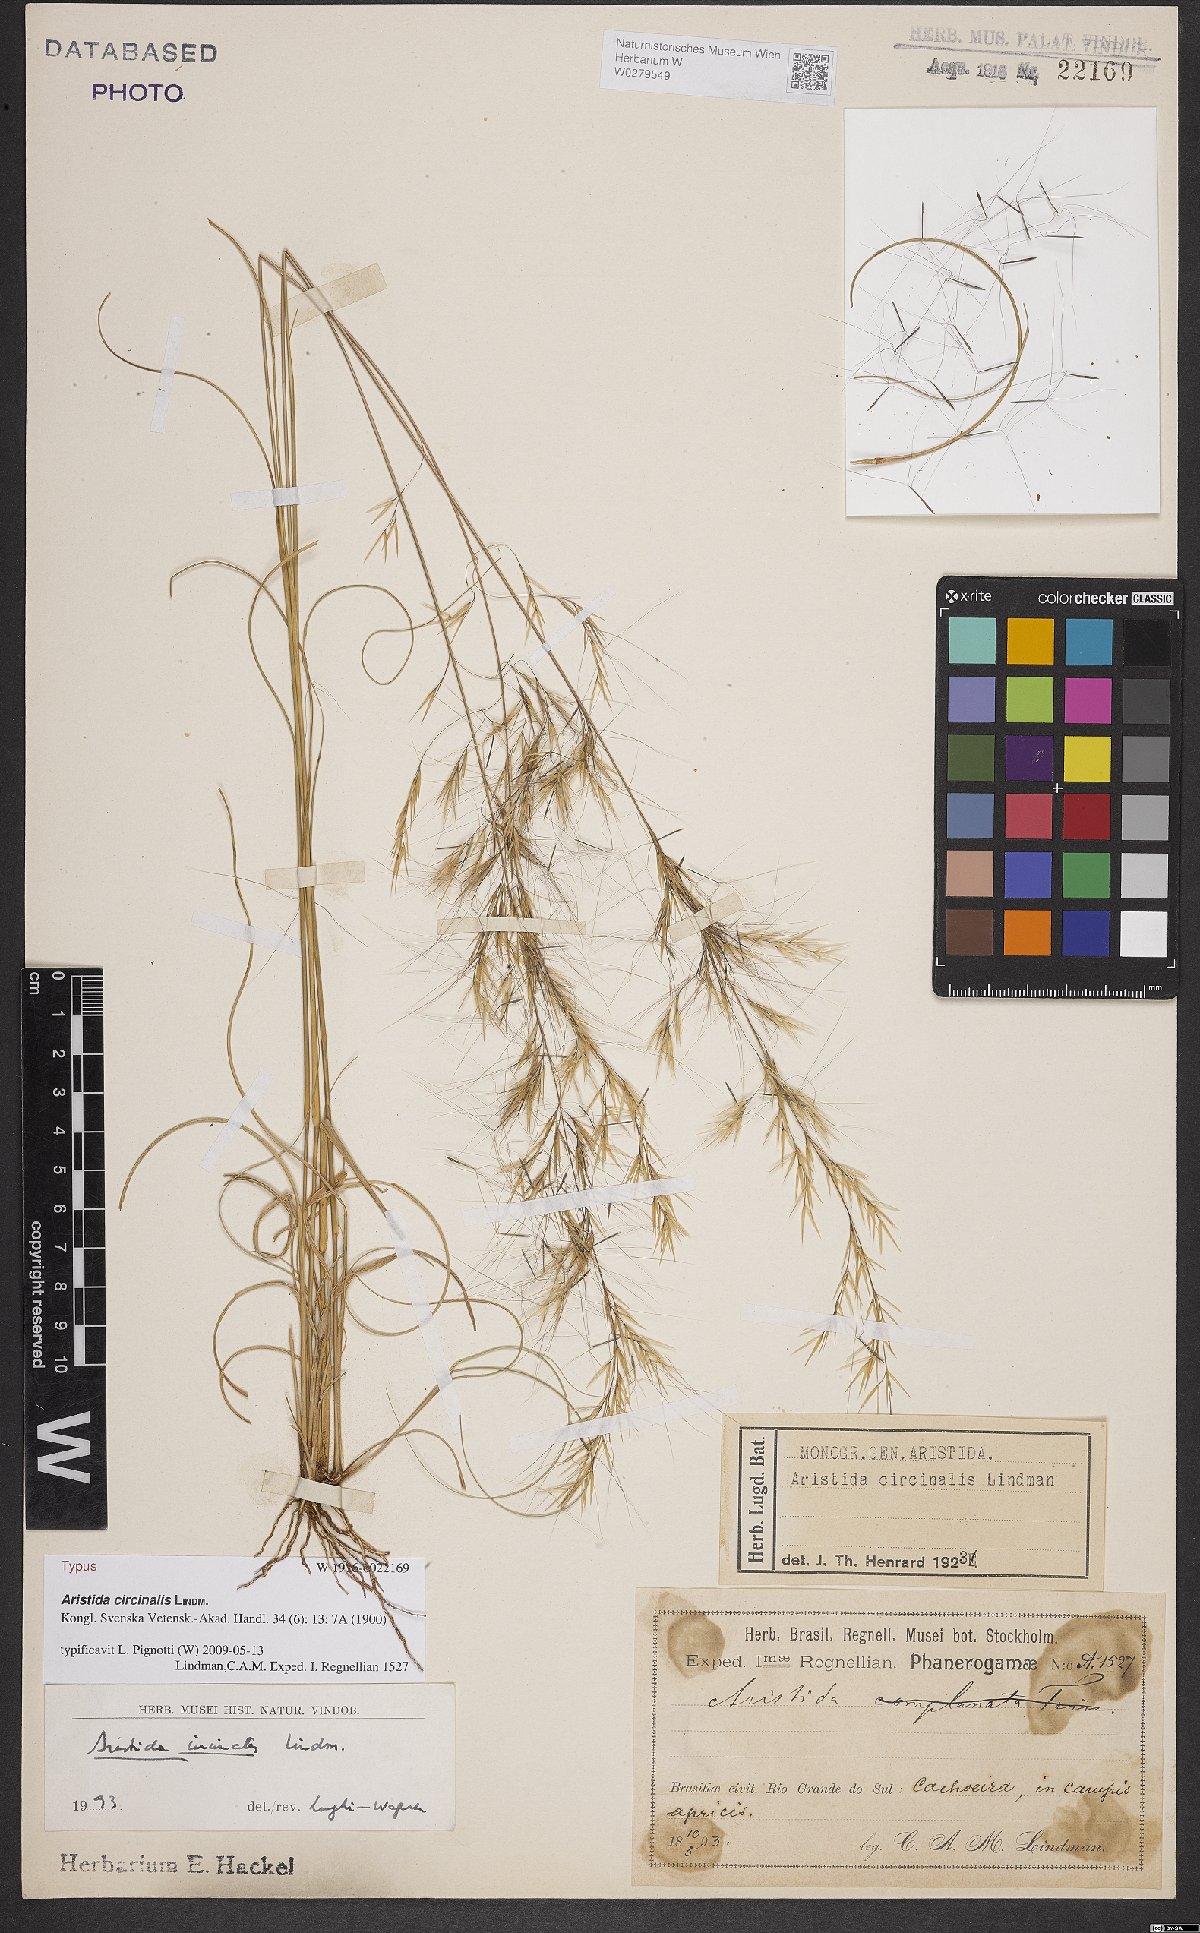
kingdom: Plantae
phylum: Tracheophyta
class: Liliopsida
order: Poales
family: Poaceae
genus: Aristida
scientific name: Aristida circinalis
